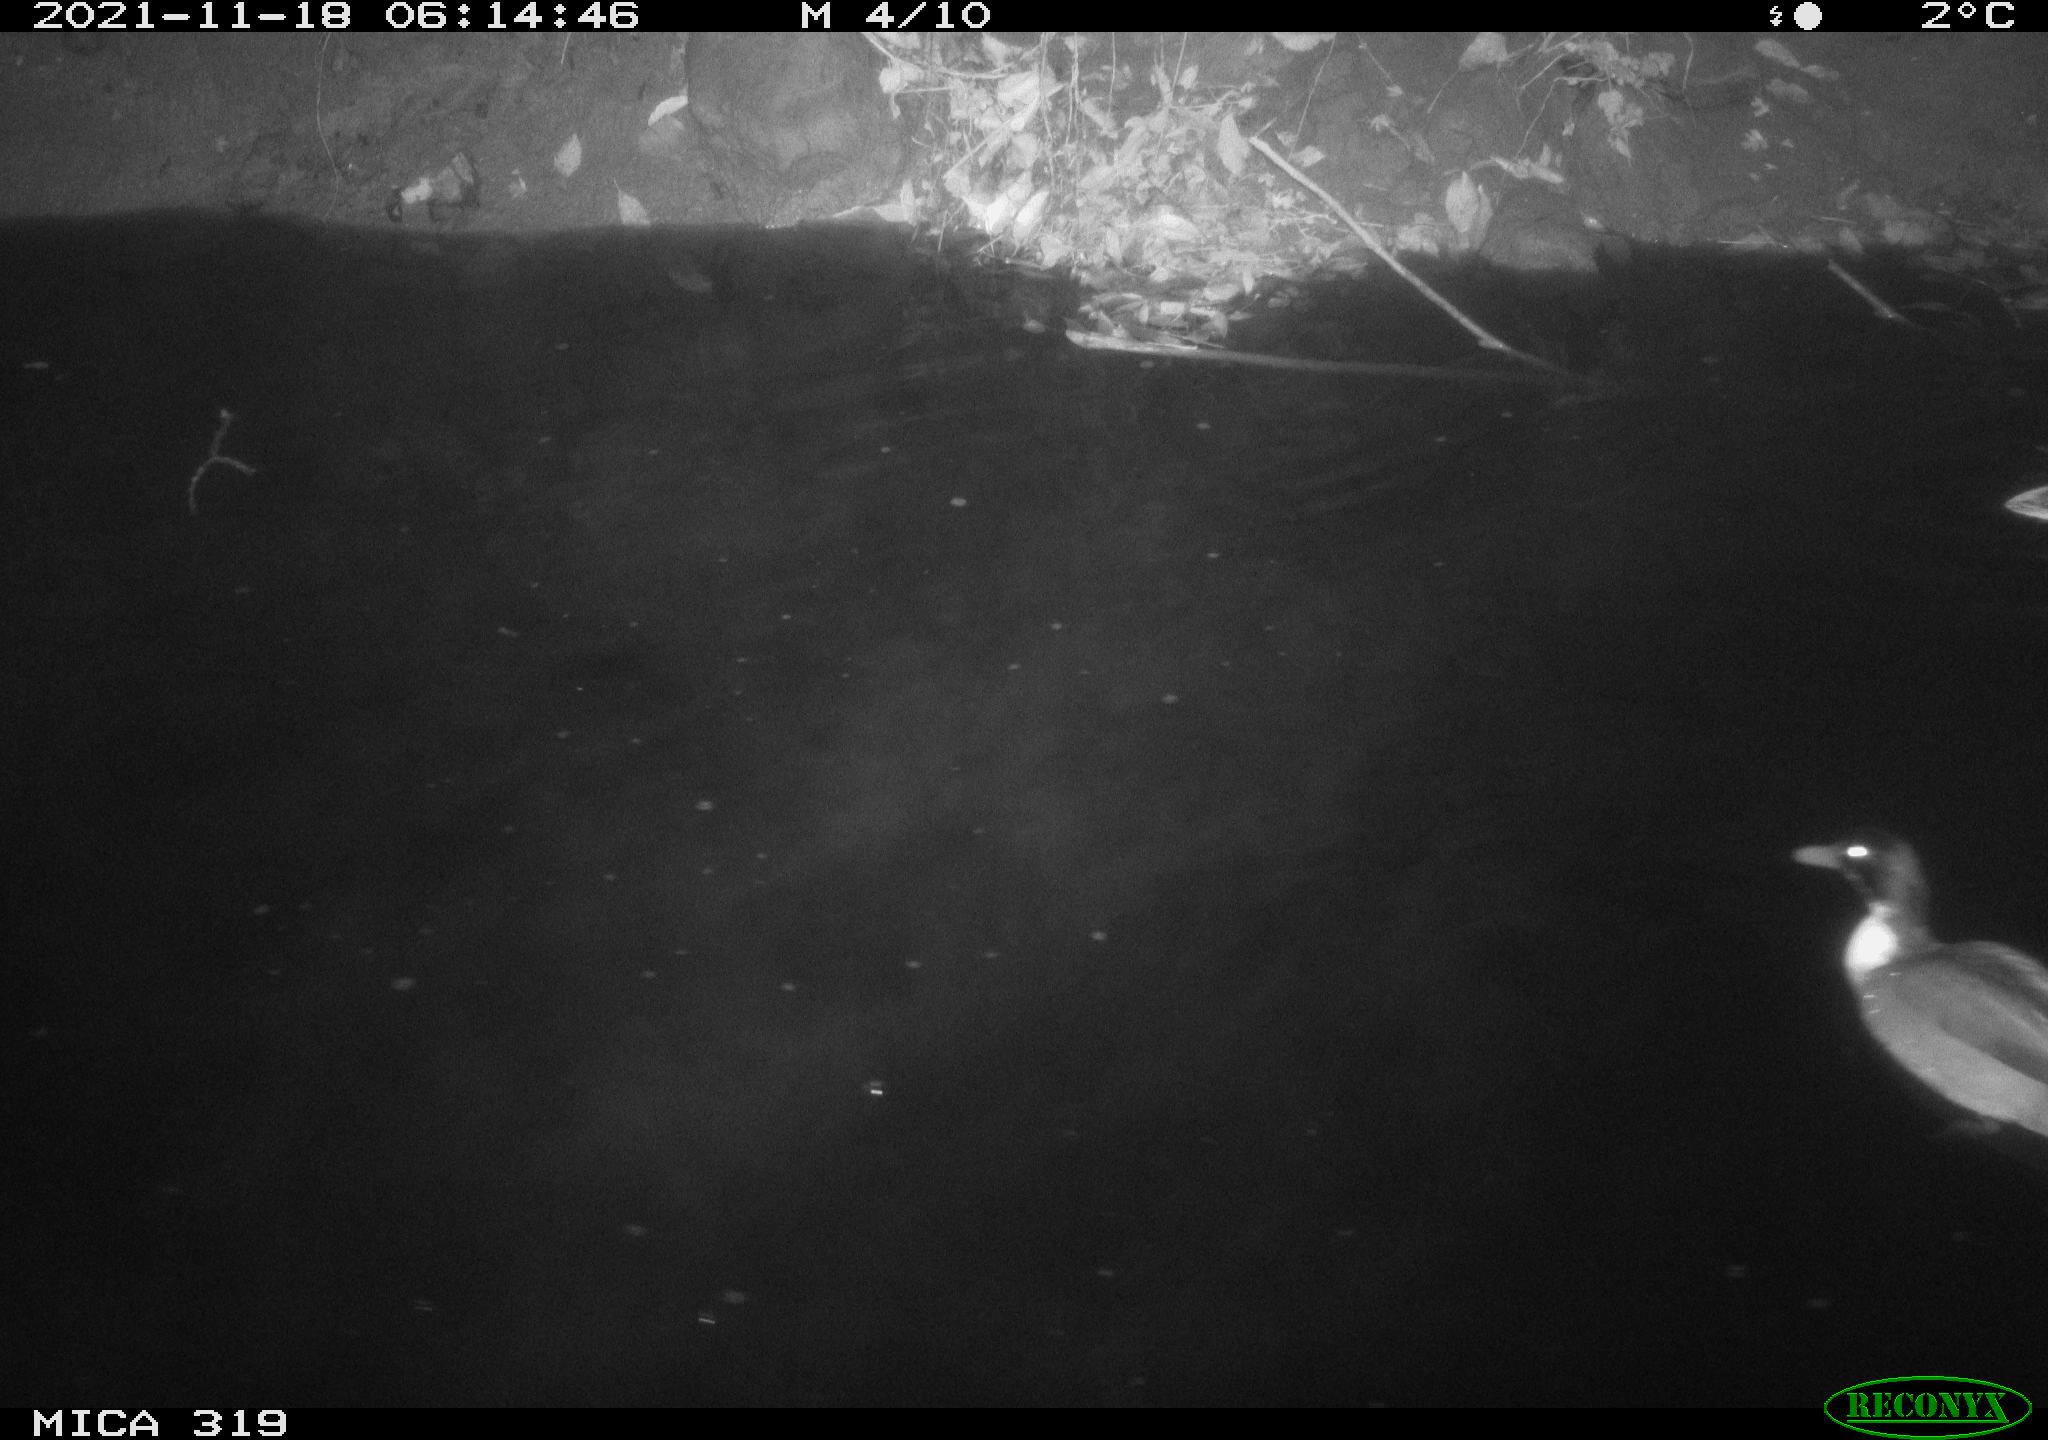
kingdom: Animalia
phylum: Chordata
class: Aves
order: Anseriformes
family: Anatidae
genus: Anas
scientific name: Anas platyrhynchos
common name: Mallard
